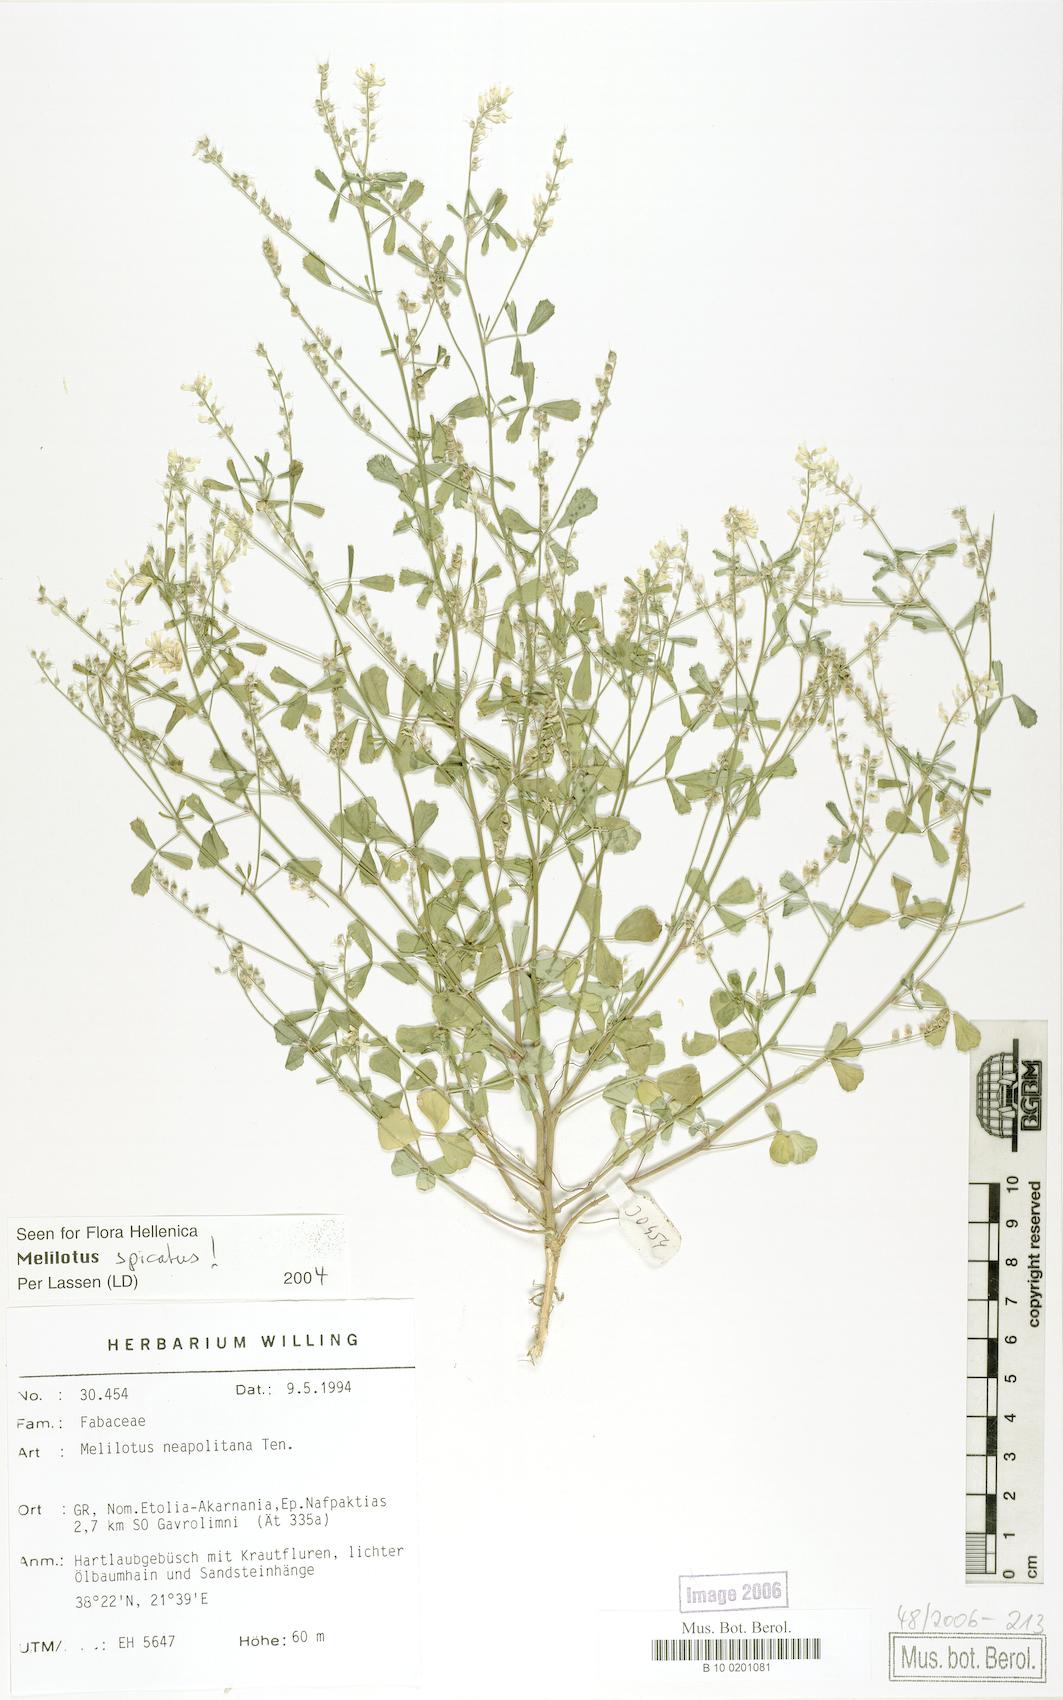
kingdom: Plantae
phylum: Tracheophyta
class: Magnoliopsida
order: Fabales
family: Fabaceae
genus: Melilotus
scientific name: Melilotus neapolitanus
